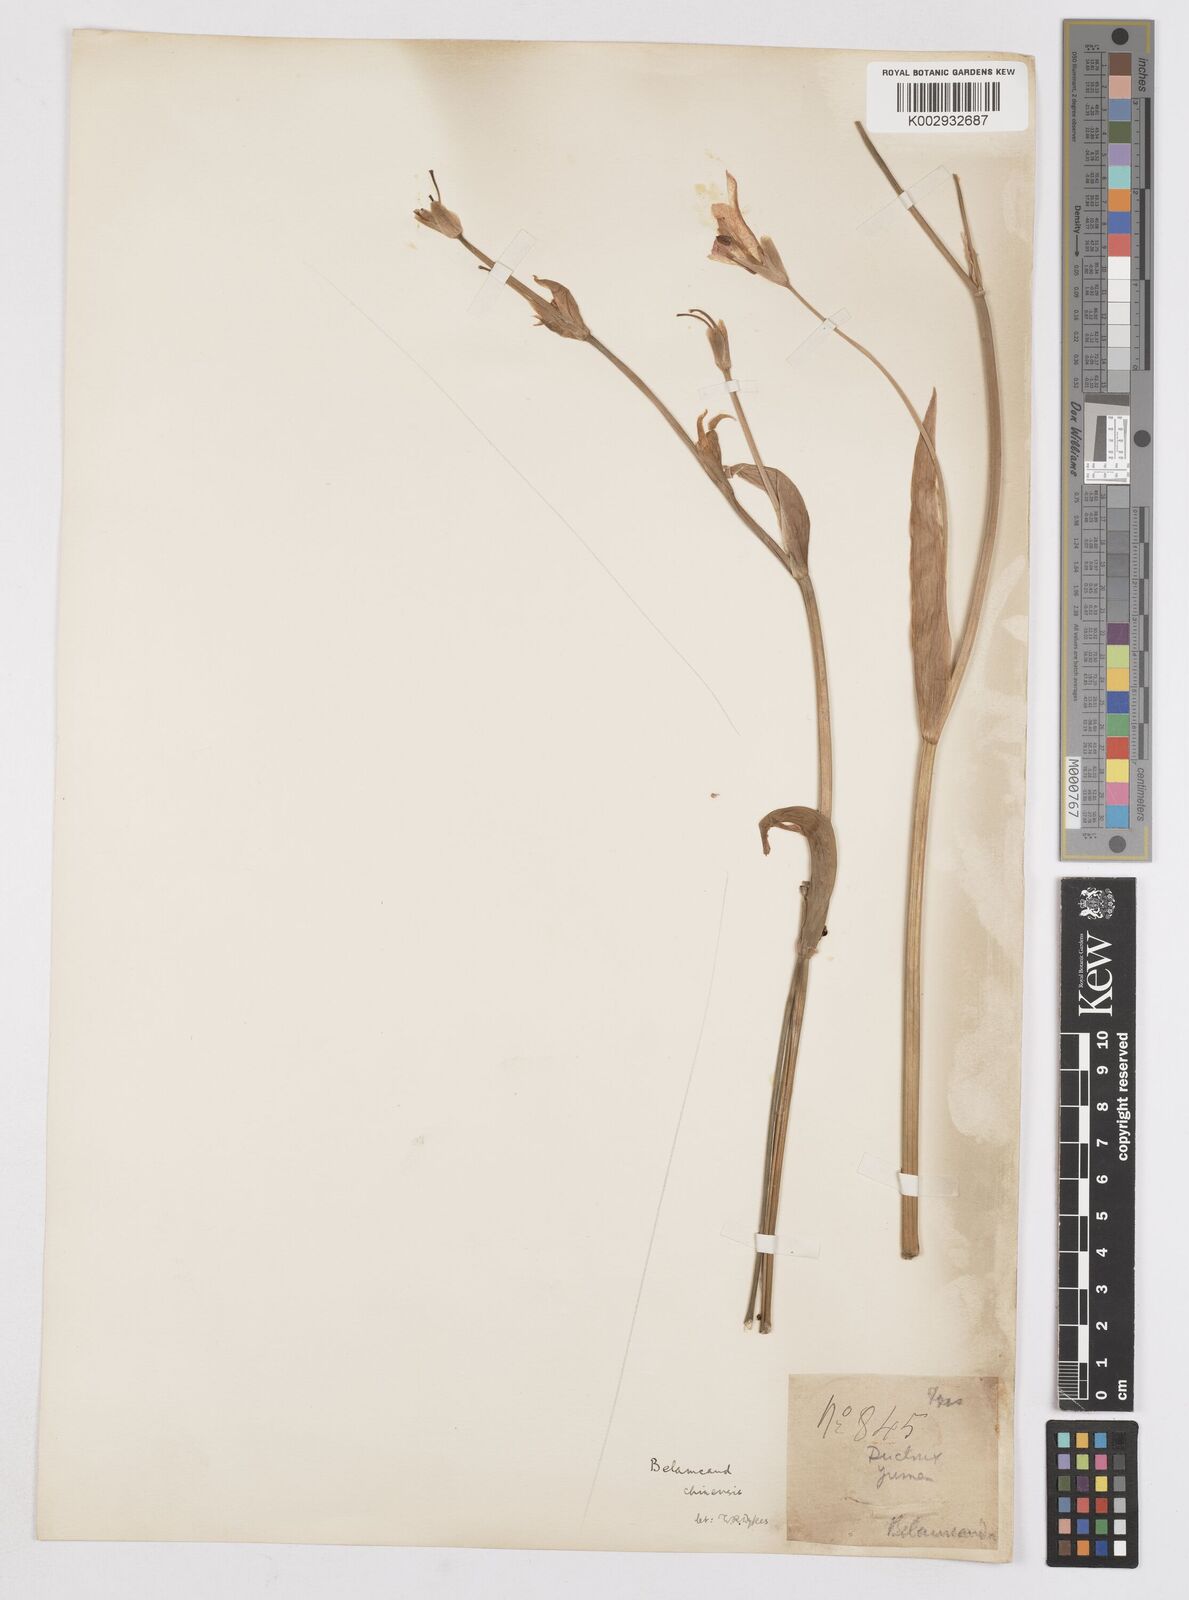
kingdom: Plantae
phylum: Tracheophyta
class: Liliopsida
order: Asparagales
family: Iridaceae
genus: Iris
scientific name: Iris
